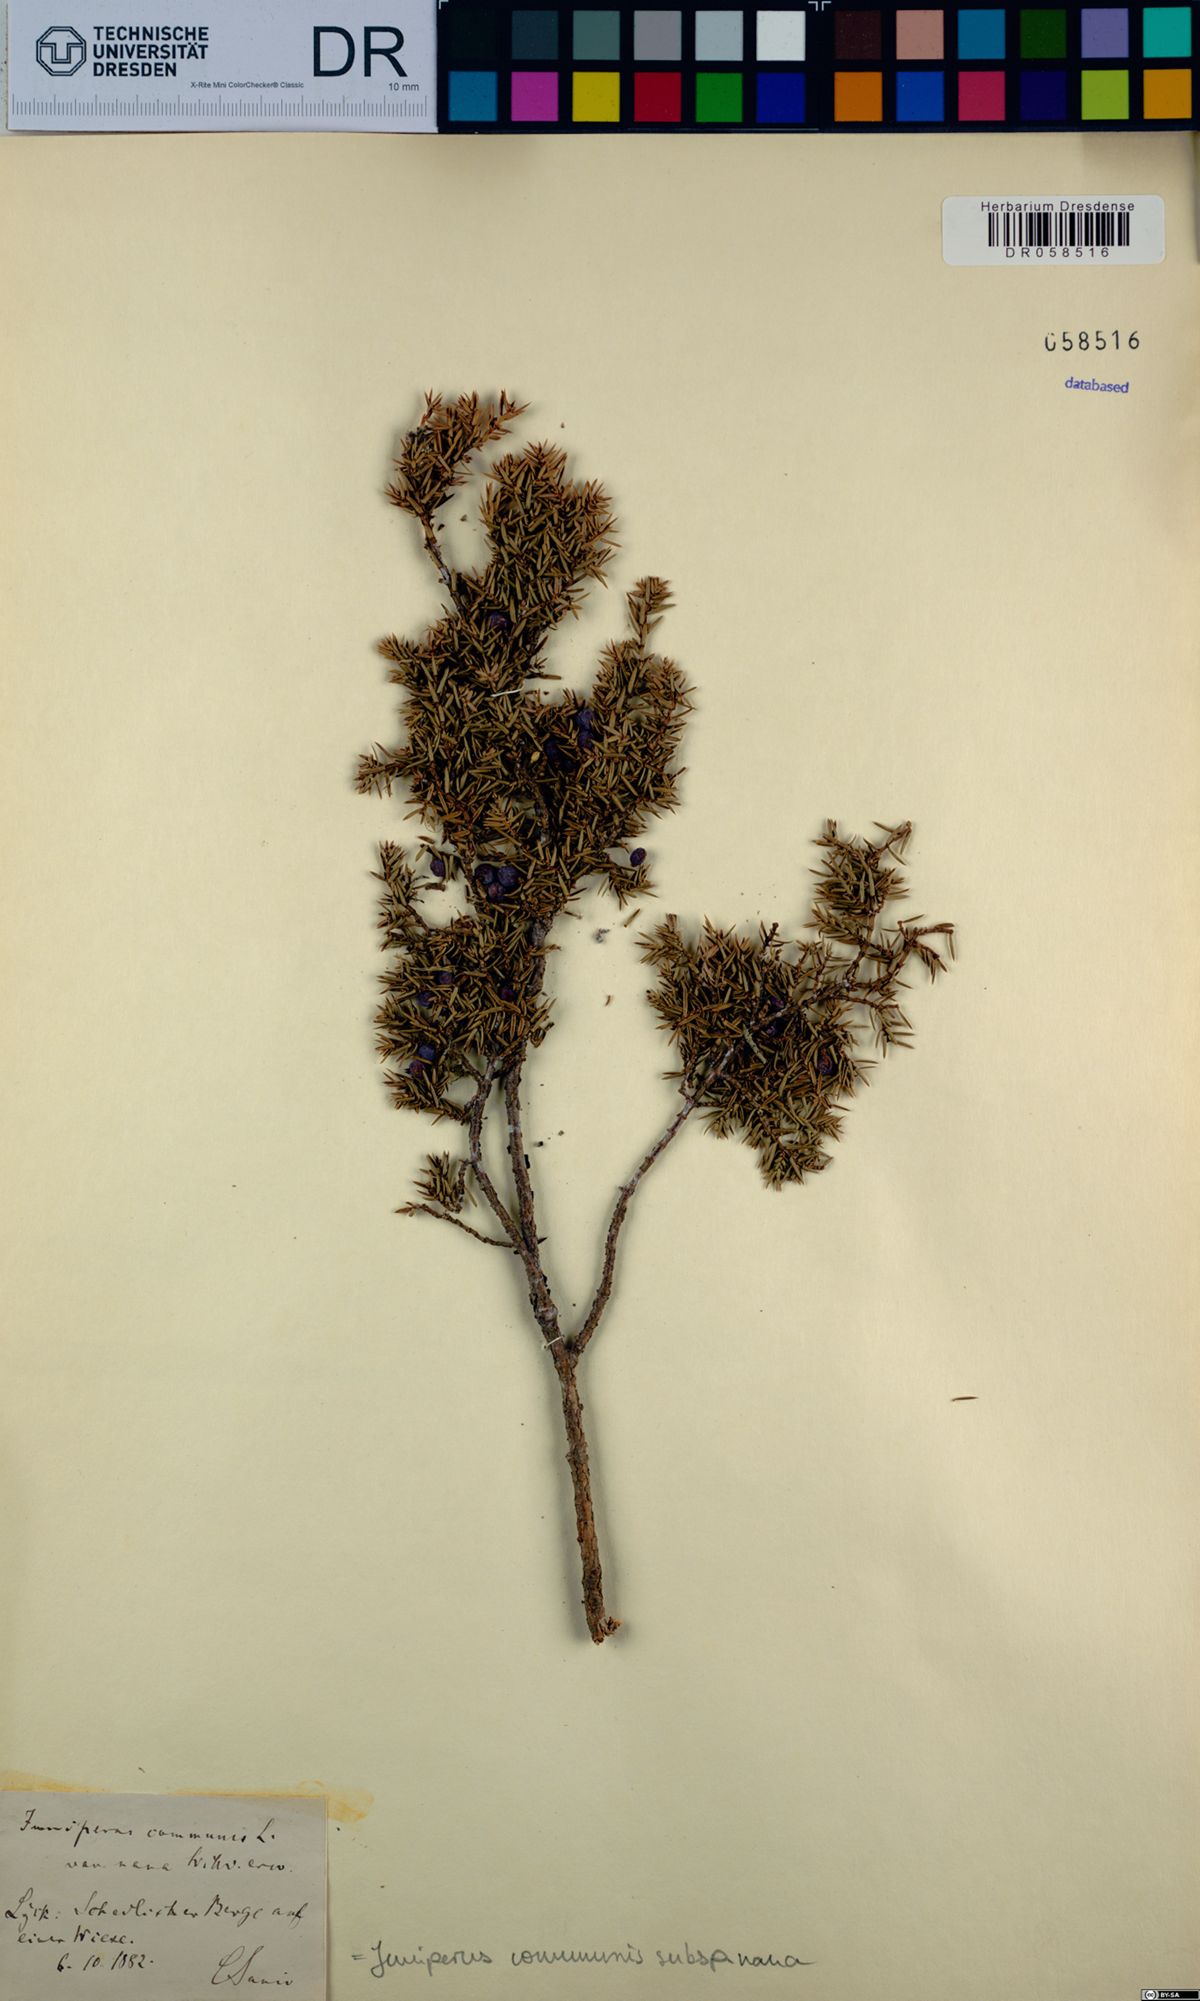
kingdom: Plantae
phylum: Tracheophyta
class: Pinopsida
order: Pinales
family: Cupressaceae
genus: Juniperus
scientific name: Juniperus communis
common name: Common juniper
